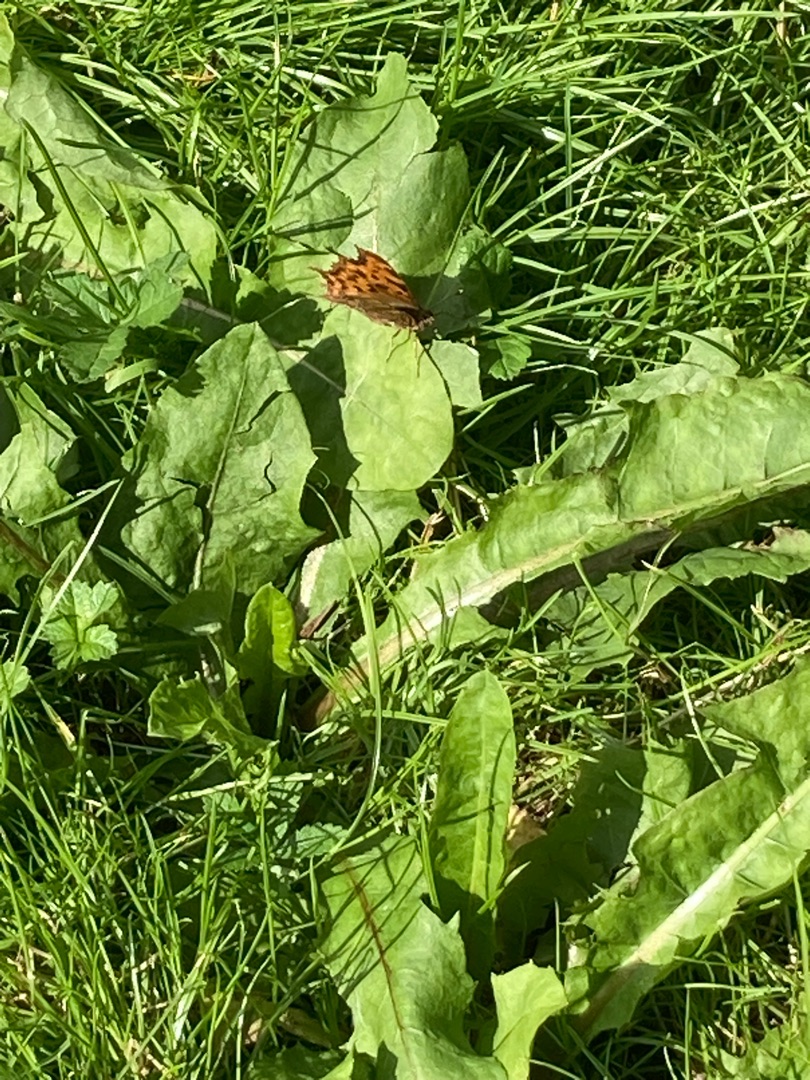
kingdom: Animalia
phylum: Arthropoda
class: Insecta
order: Lepidoptera
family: Nymphalidae
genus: Polygonia
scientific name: Polygonia c-album
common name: Det hvide C
